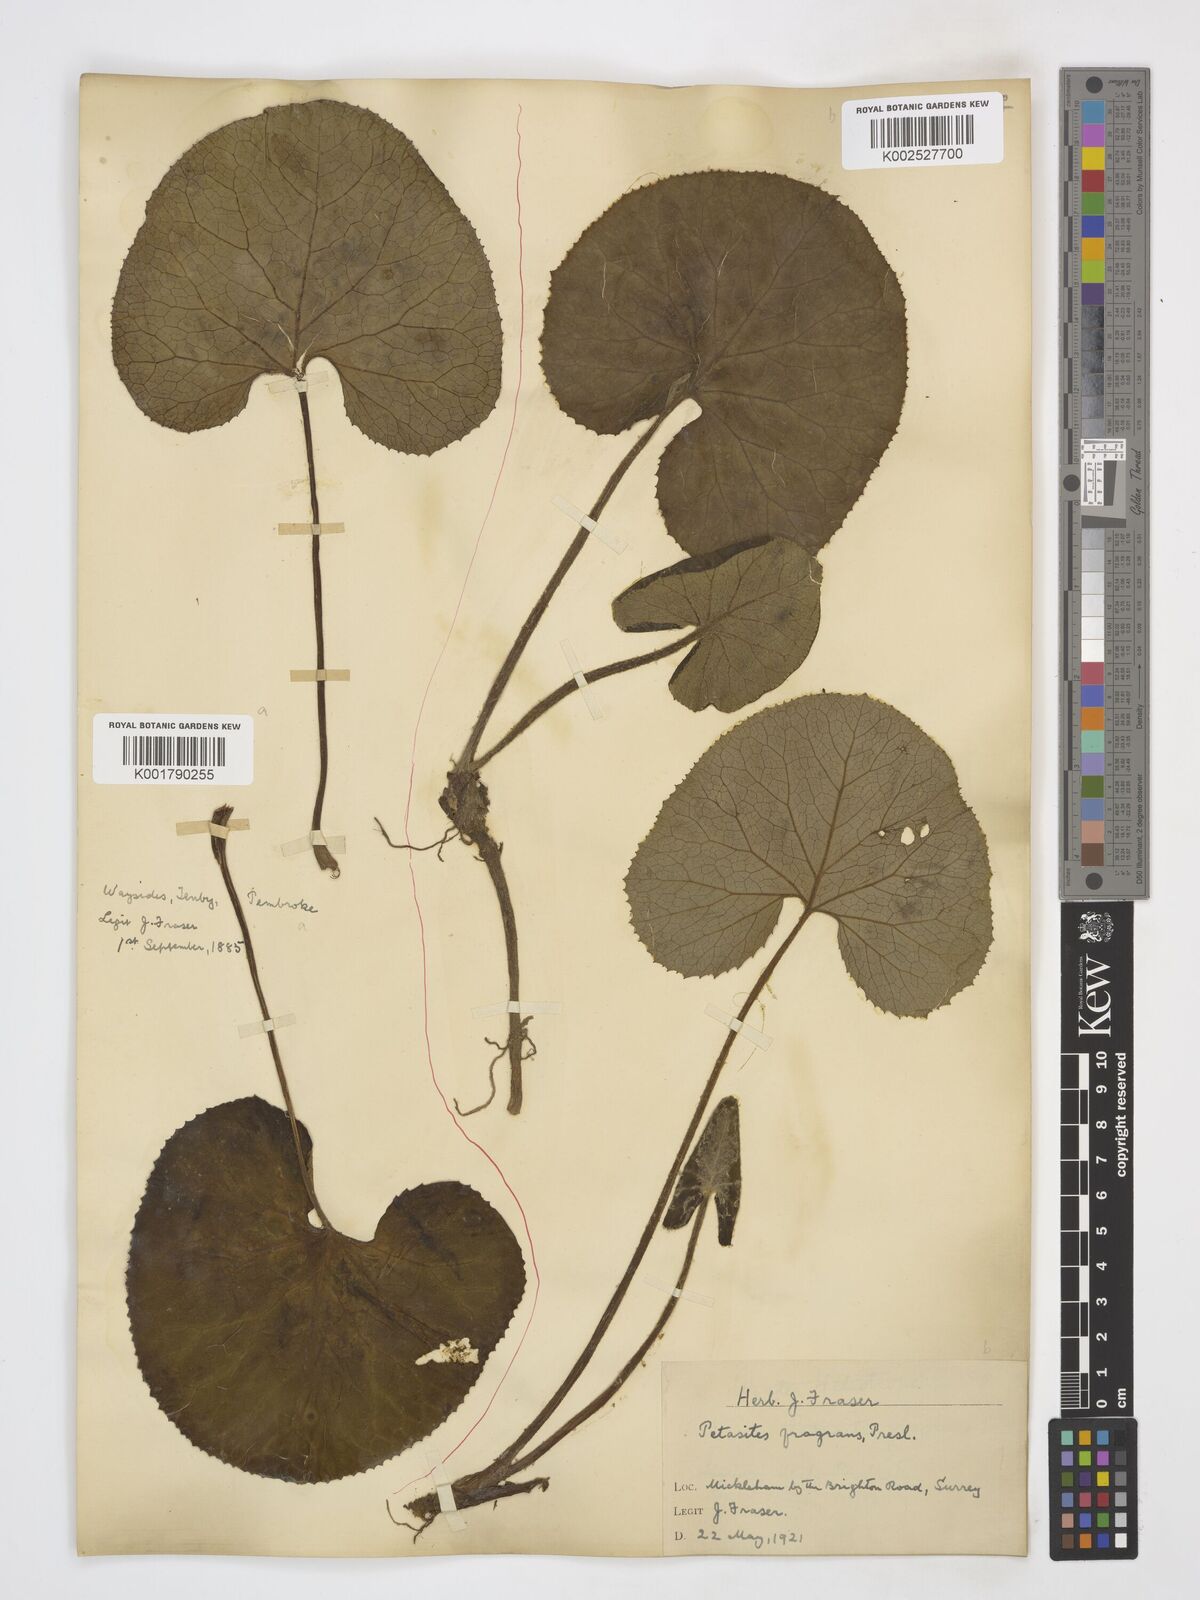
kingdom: Plantae
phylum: Tracheophyta
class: Magnoliopsida
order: Asterales
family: Asteraceae
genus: Petasites
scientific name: Petasites pyrenaicus
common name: Winter heliotrope
